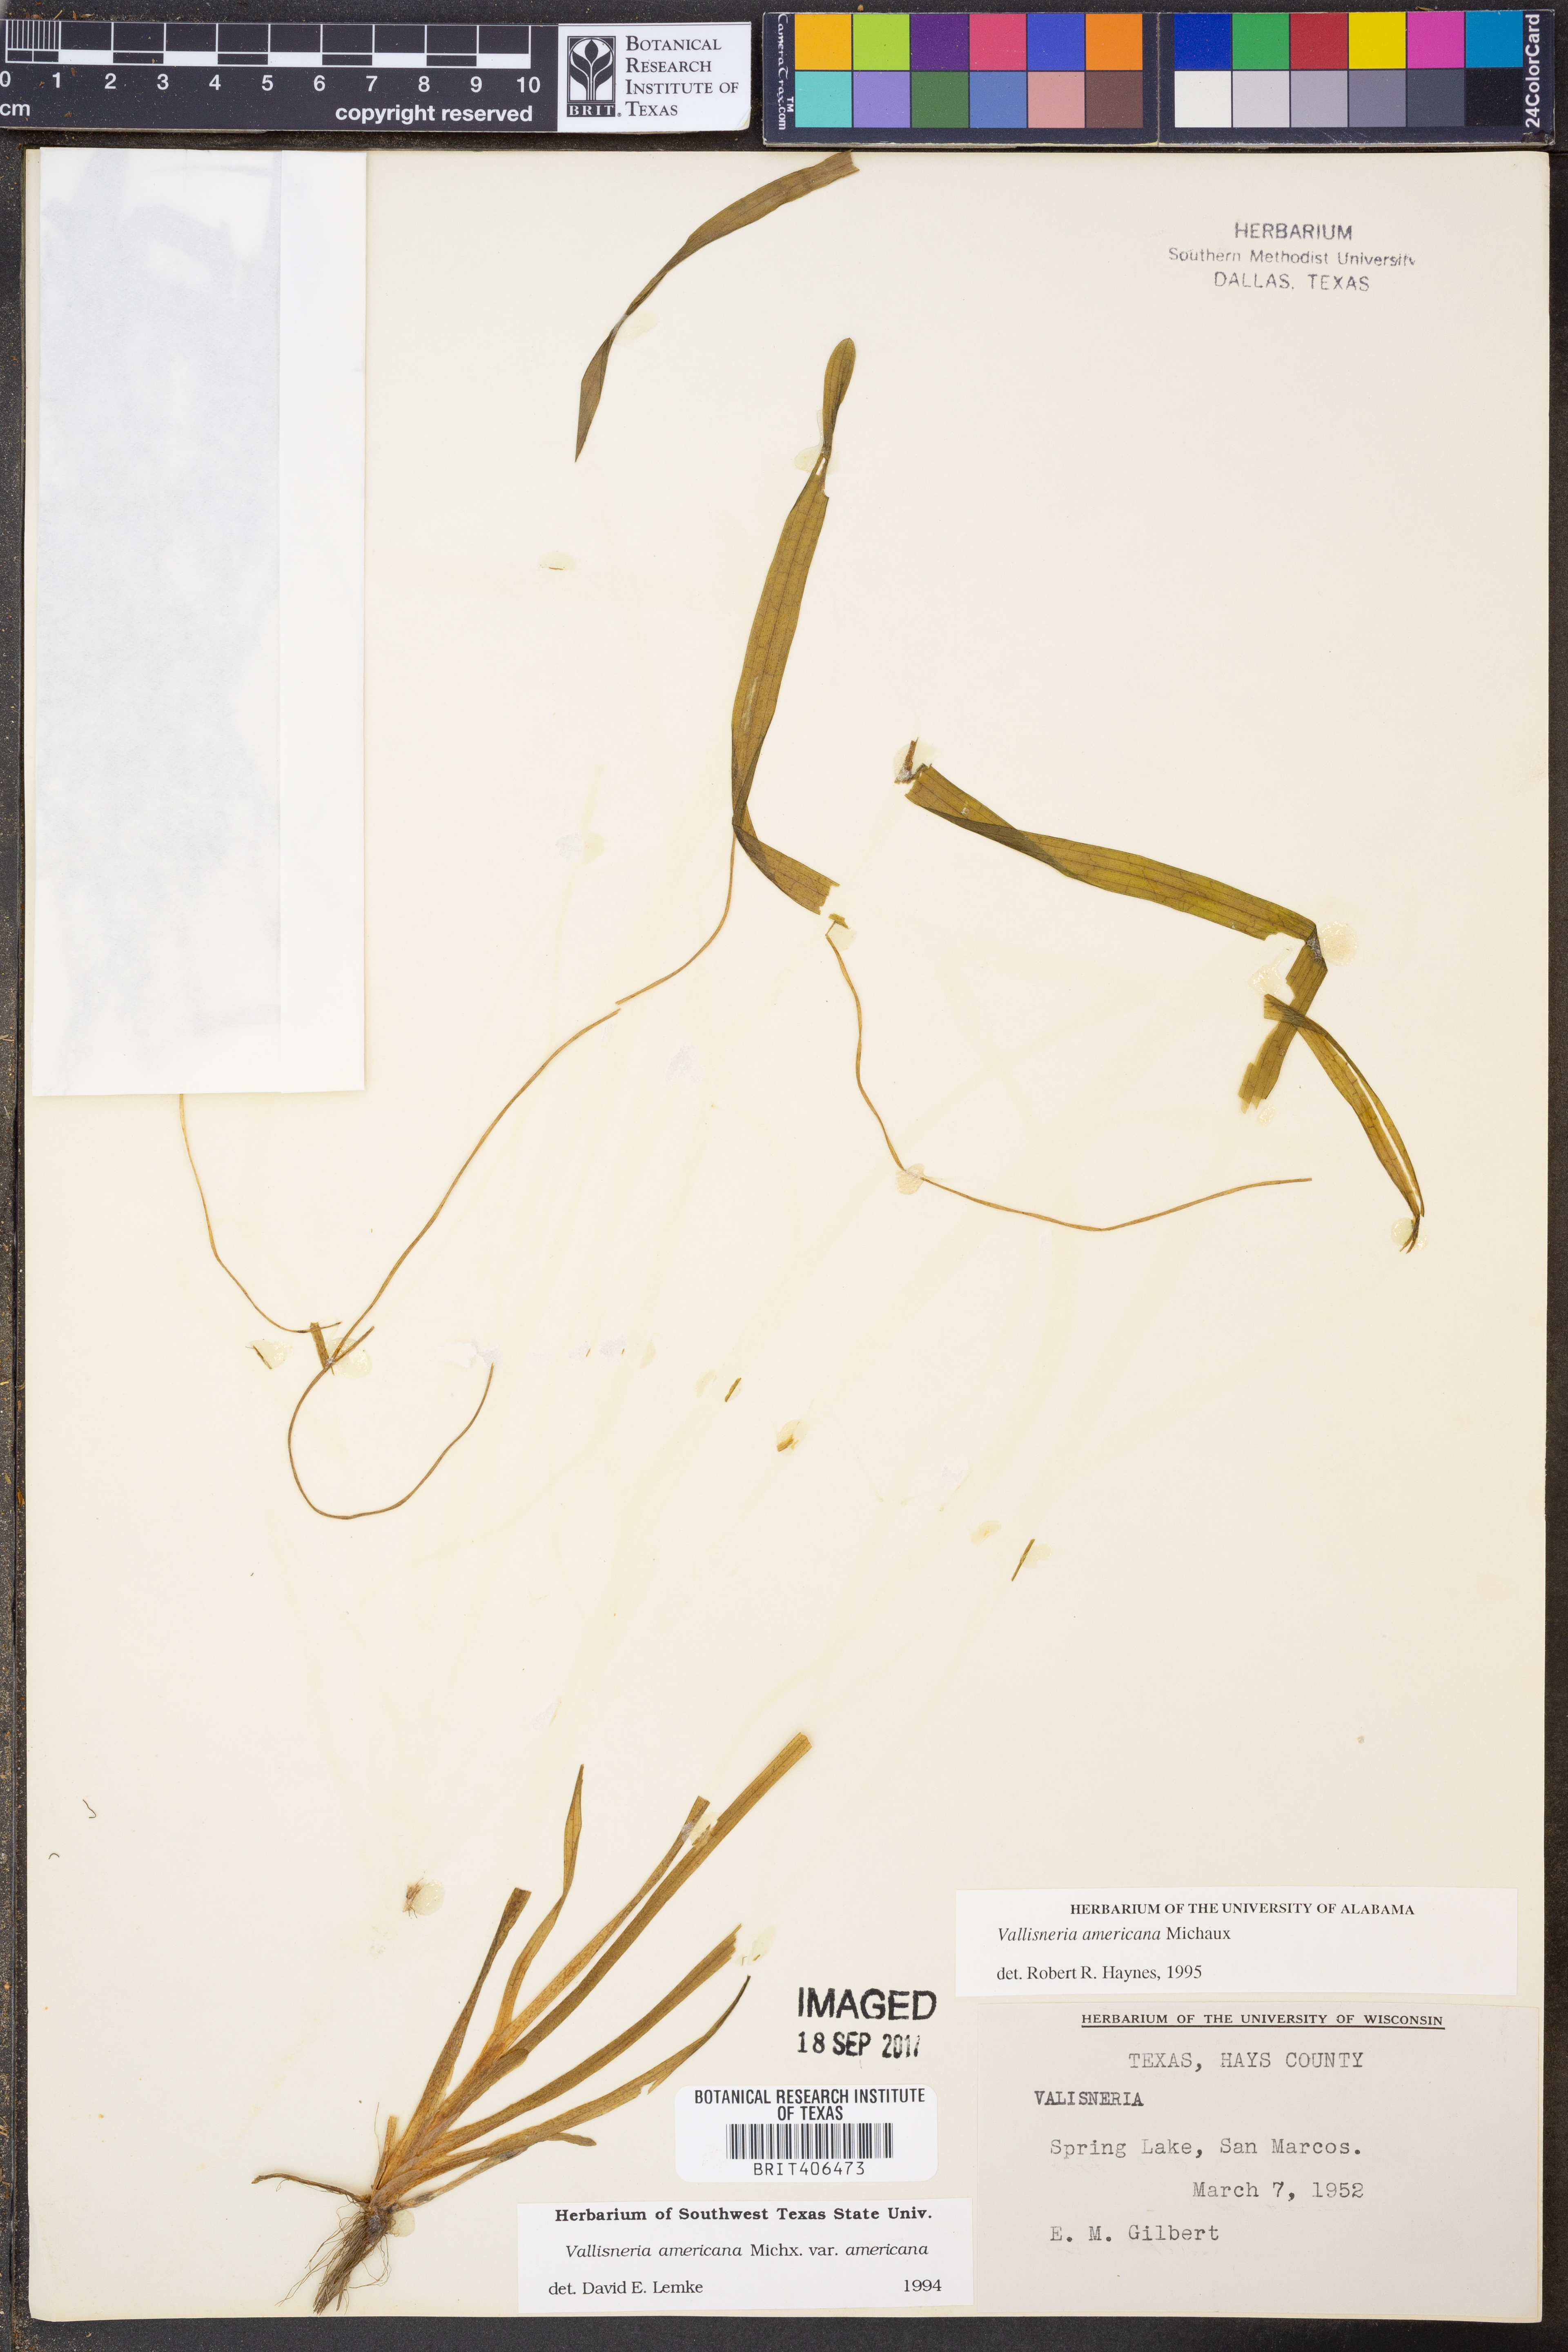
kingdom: Plantae
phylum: Tracheophyta
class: Liliopsida
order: Alismatales
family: Hydrocharitaceae
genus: Vallisneria
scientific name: Vallisneria americana
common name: American eelgrass
